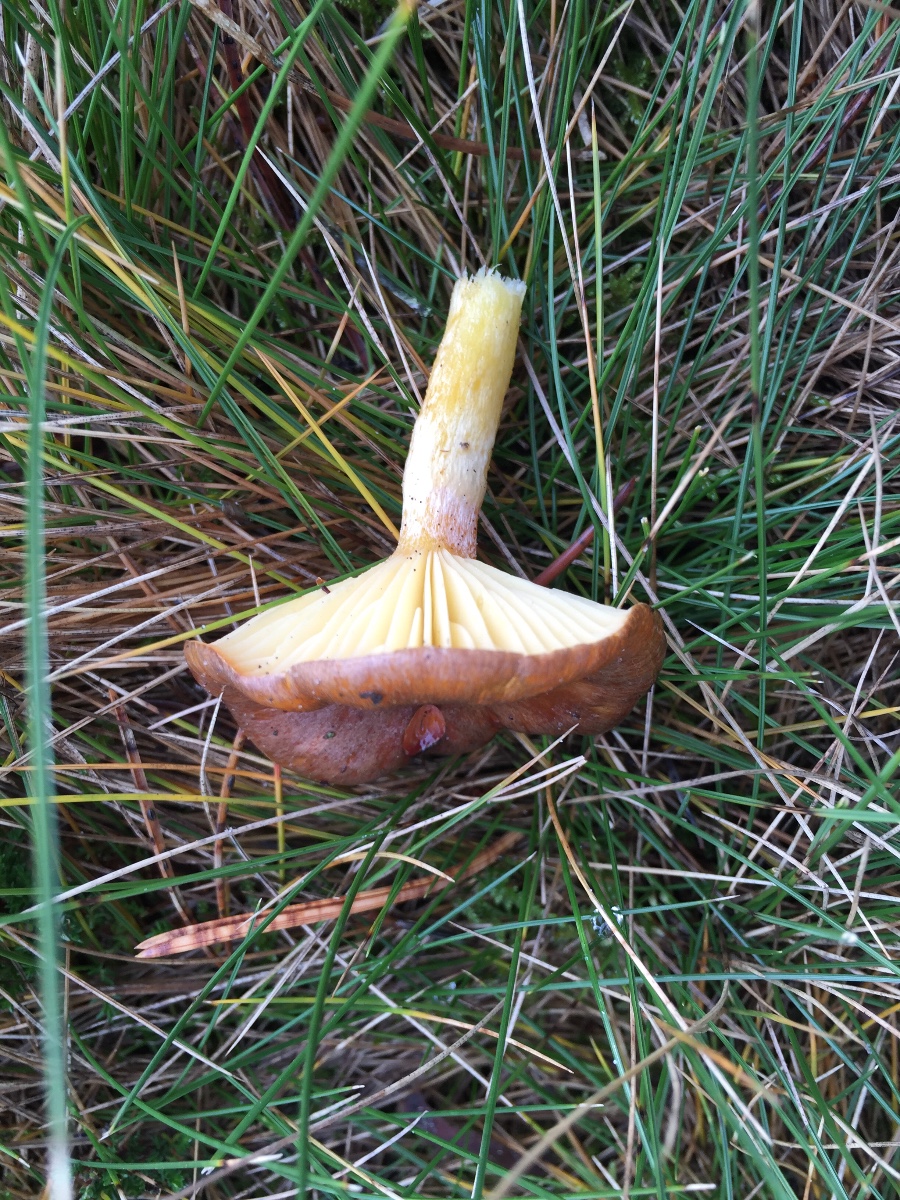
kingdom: Fungi
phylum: Basidiomycota
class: Agaricomycetes
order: Agaricales
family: Hygrophoraceae
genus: Hygrophorus
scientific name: Hygrophorus hypothejus
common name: frost-sneglehat
